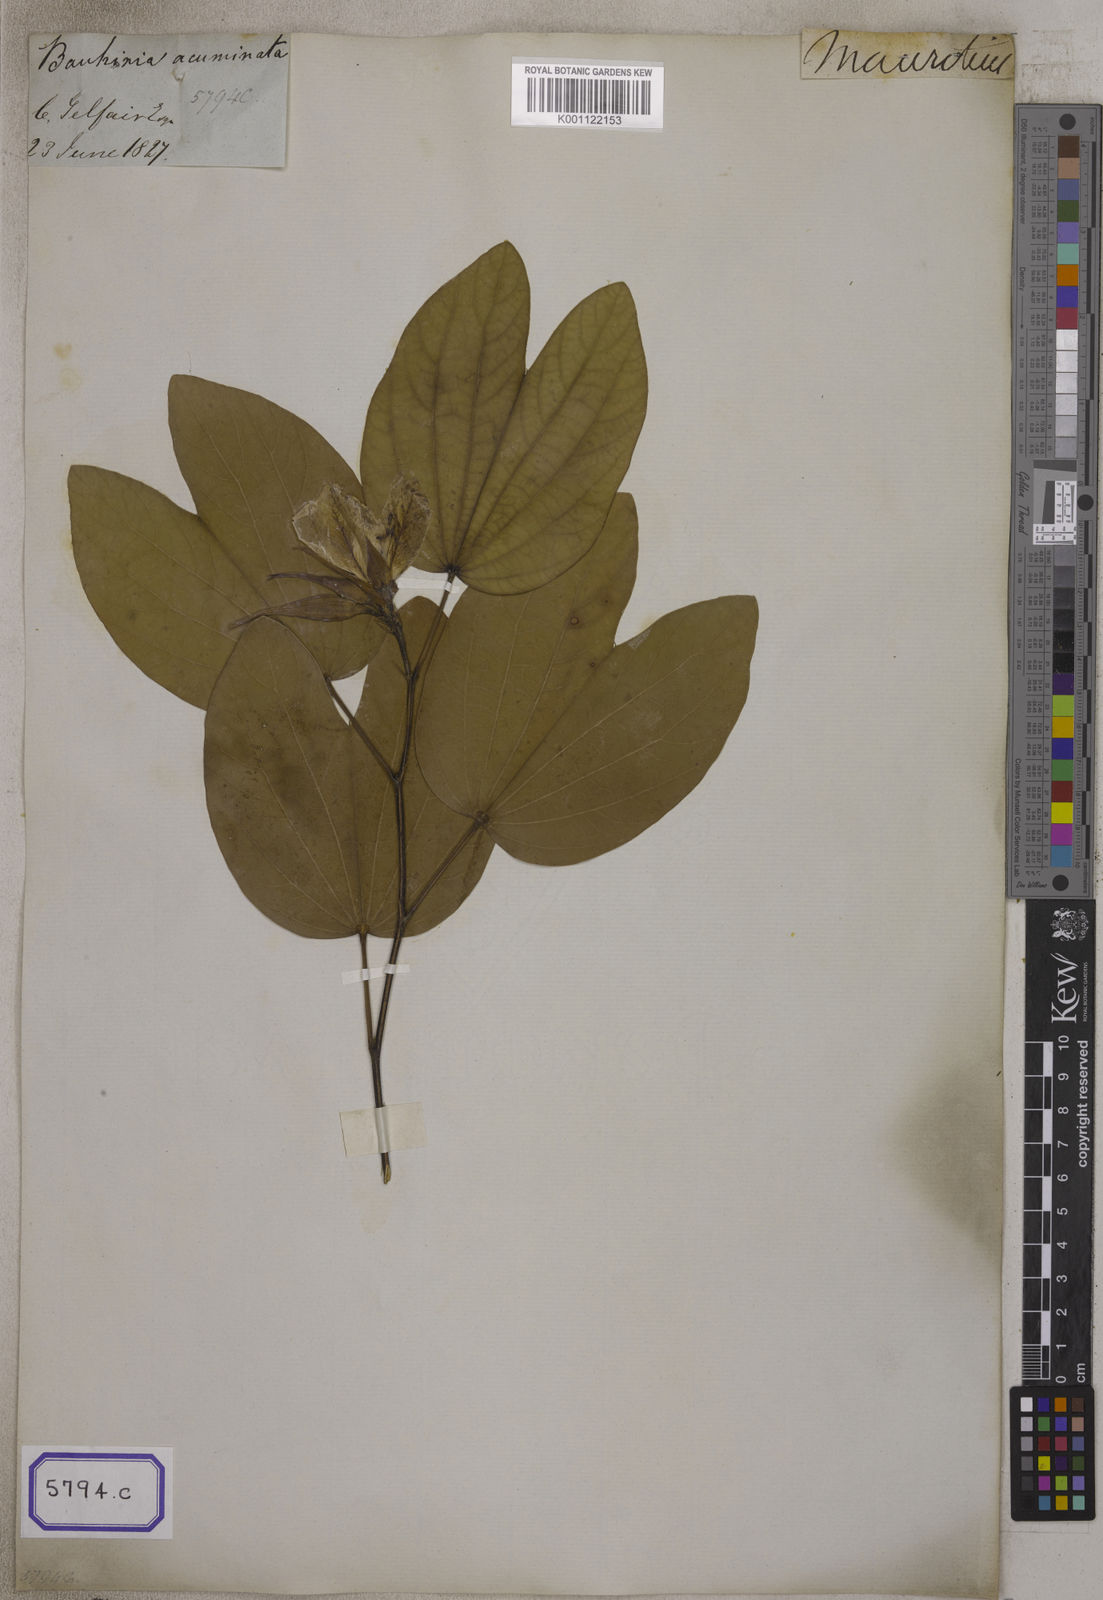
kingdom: Plantae
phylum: Tracheophyta
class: Magnoliopsida
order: Fabales
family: Fabaceae
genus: Bauhinia
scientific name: Bauhinia acuminata
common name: Dwarf white bauhinia
